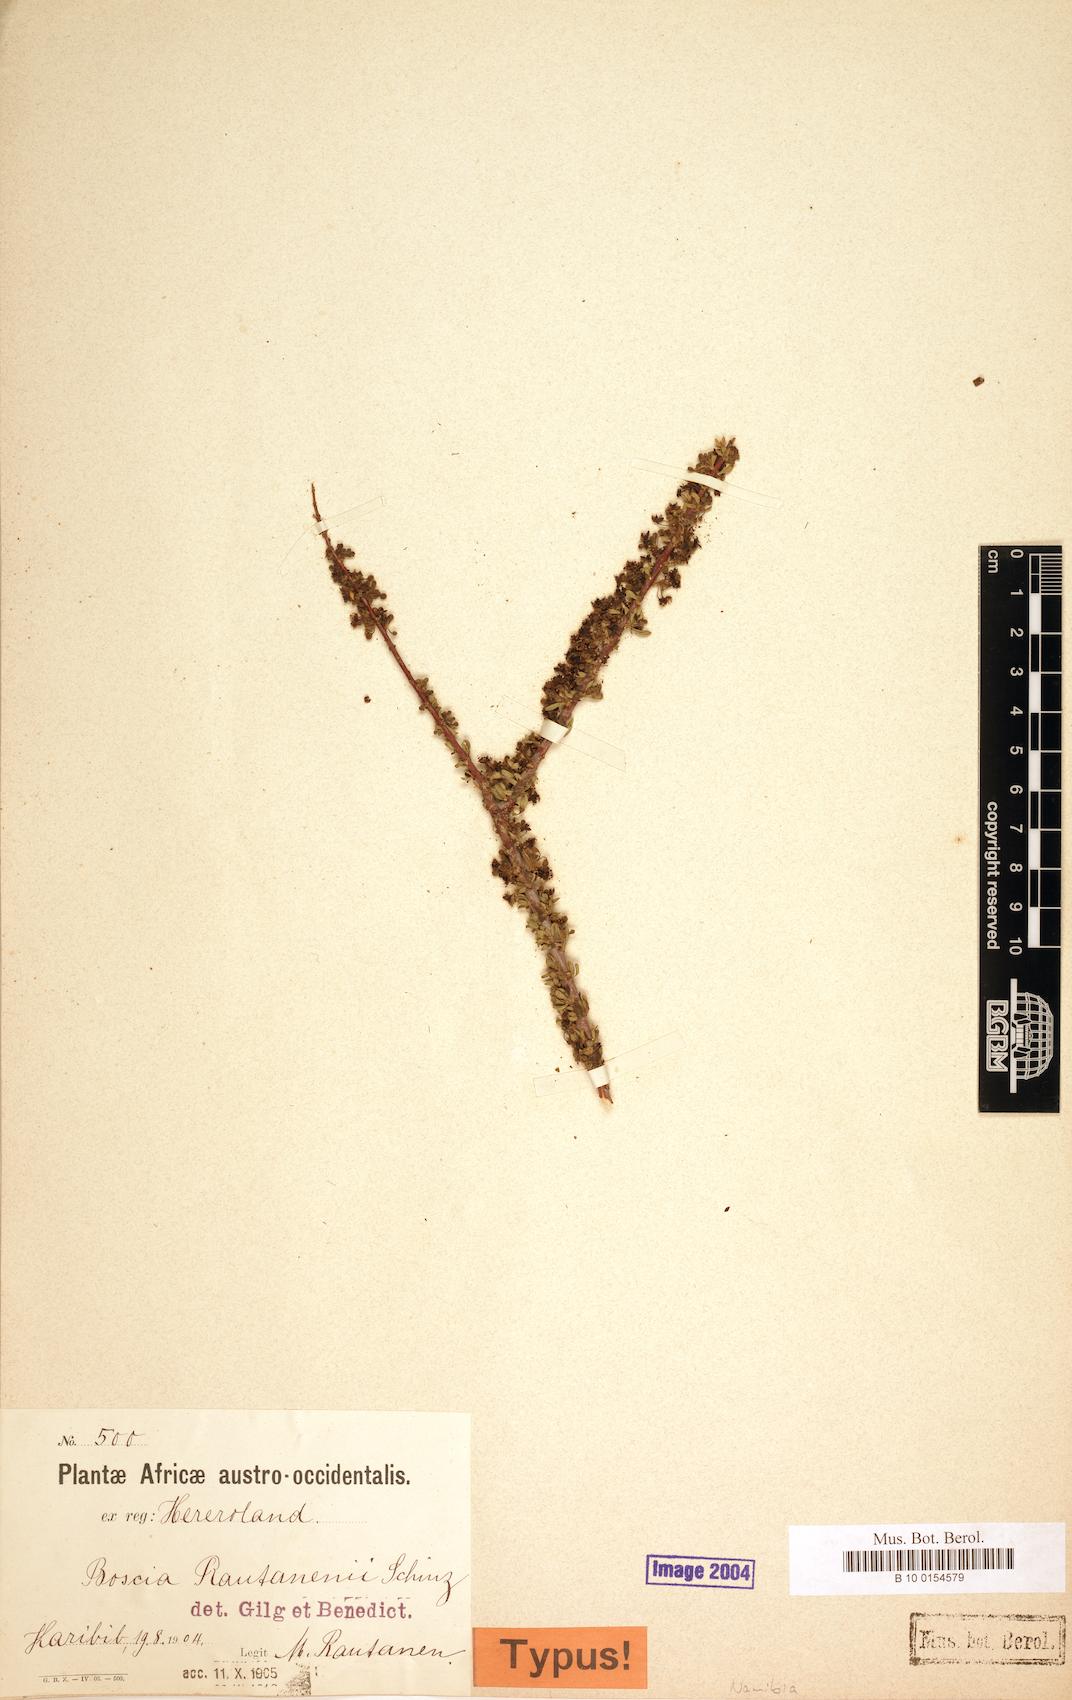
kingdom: Plantae
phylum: Tracheophyta
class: Magnoliopsida
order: Brassicales
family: Capparaceae
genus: Boscia
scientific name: Boscia foetida
